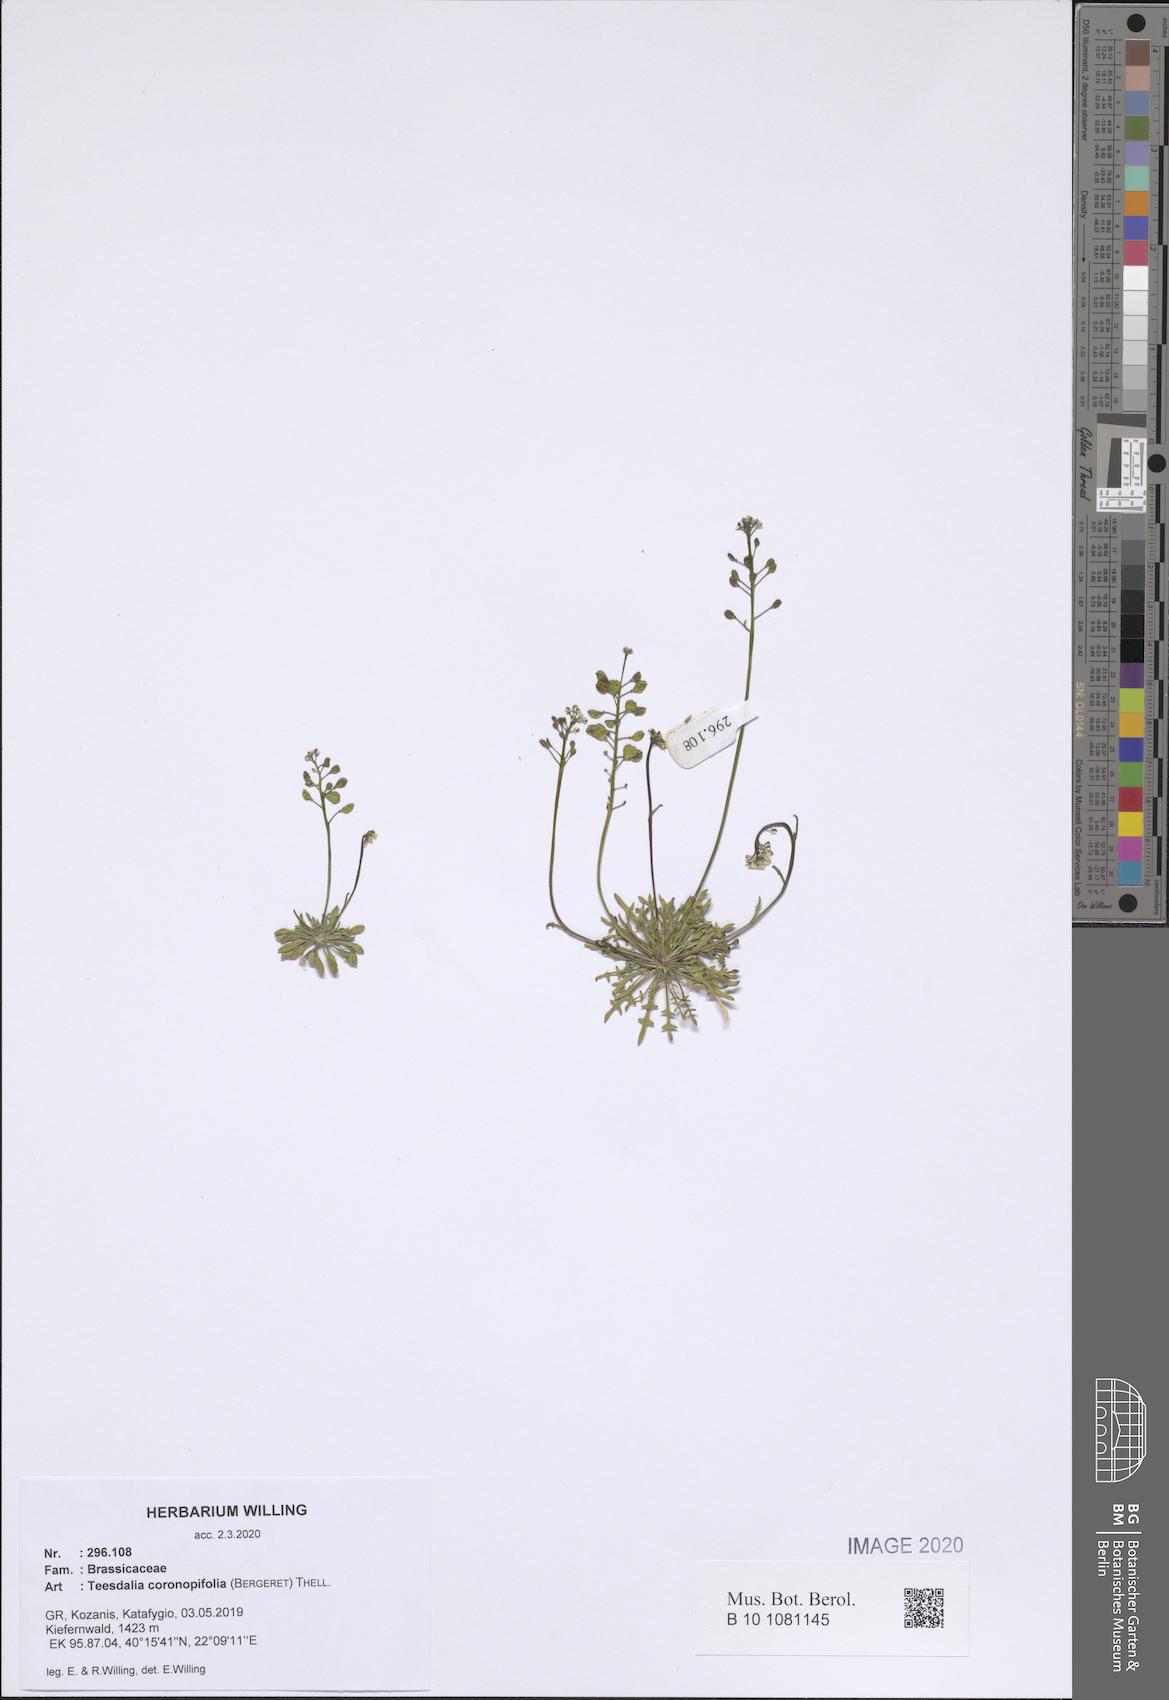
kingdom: Plantae
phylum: Tracheophyta
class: Magnoliopsida
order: Brassicales
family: Brassicaceae
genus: Teesdalia
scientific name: Teesdalia coronopifolia
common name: Lesser shepherdscress
